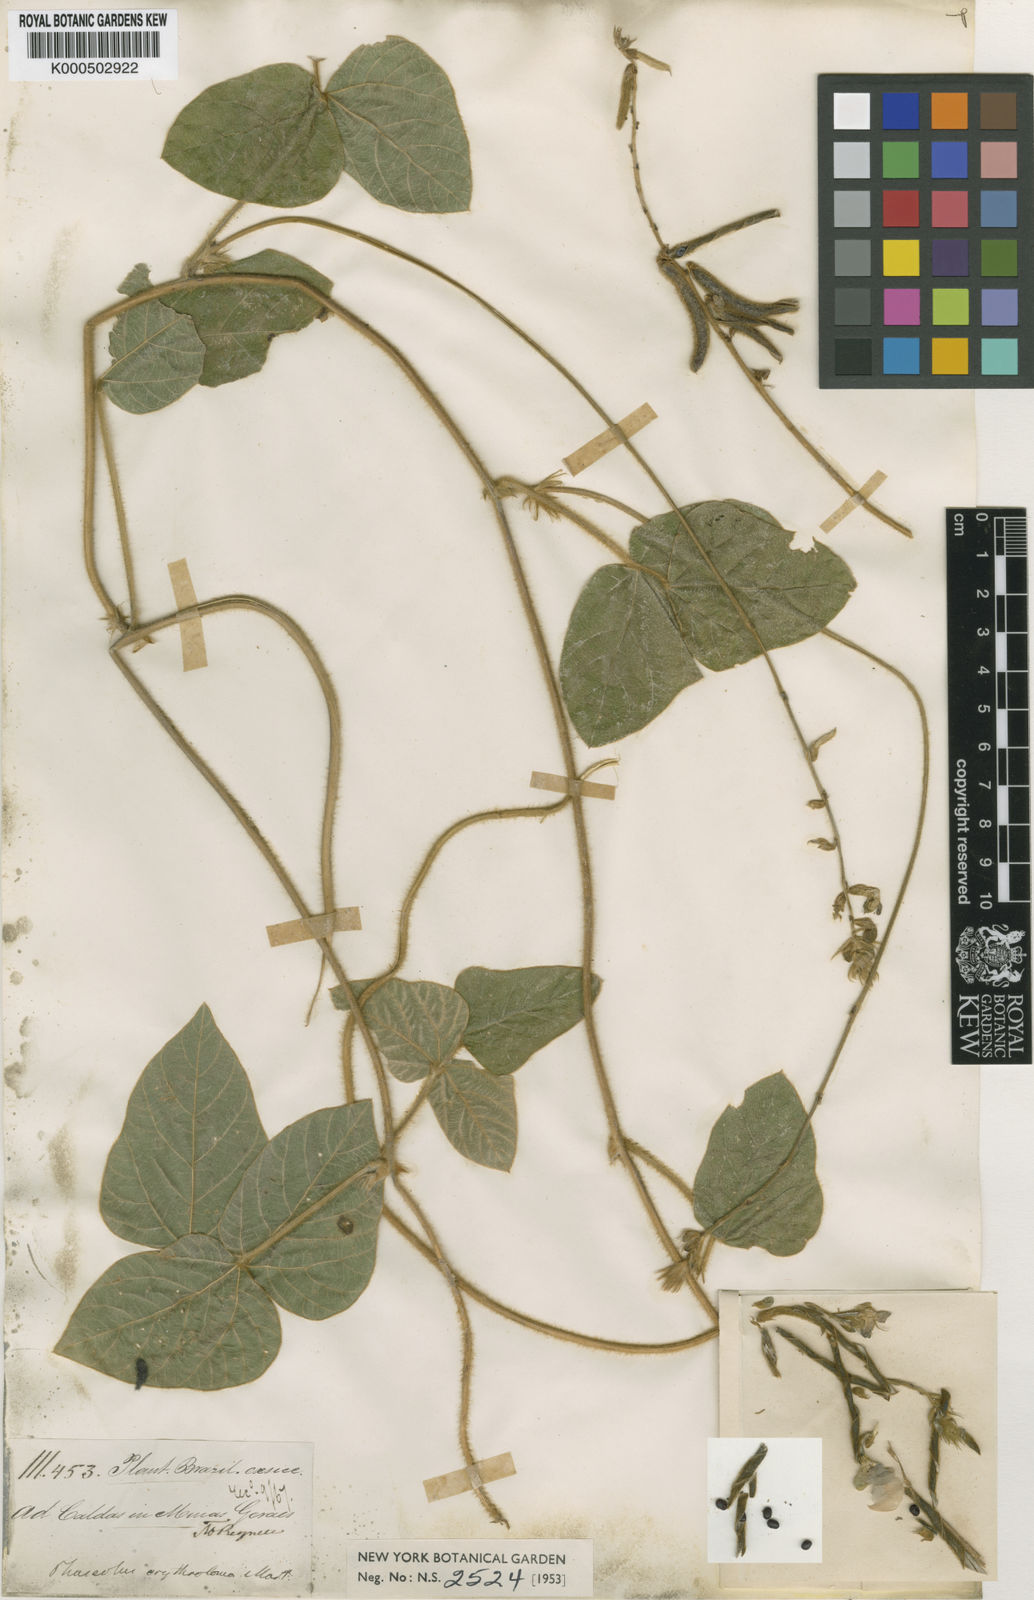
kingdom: Plantae
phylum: Tracheophyta
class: Magnoliopsida
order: Fabales
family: Fabaceae
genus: Macroptilium
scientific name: Macroptilium erythroloma
